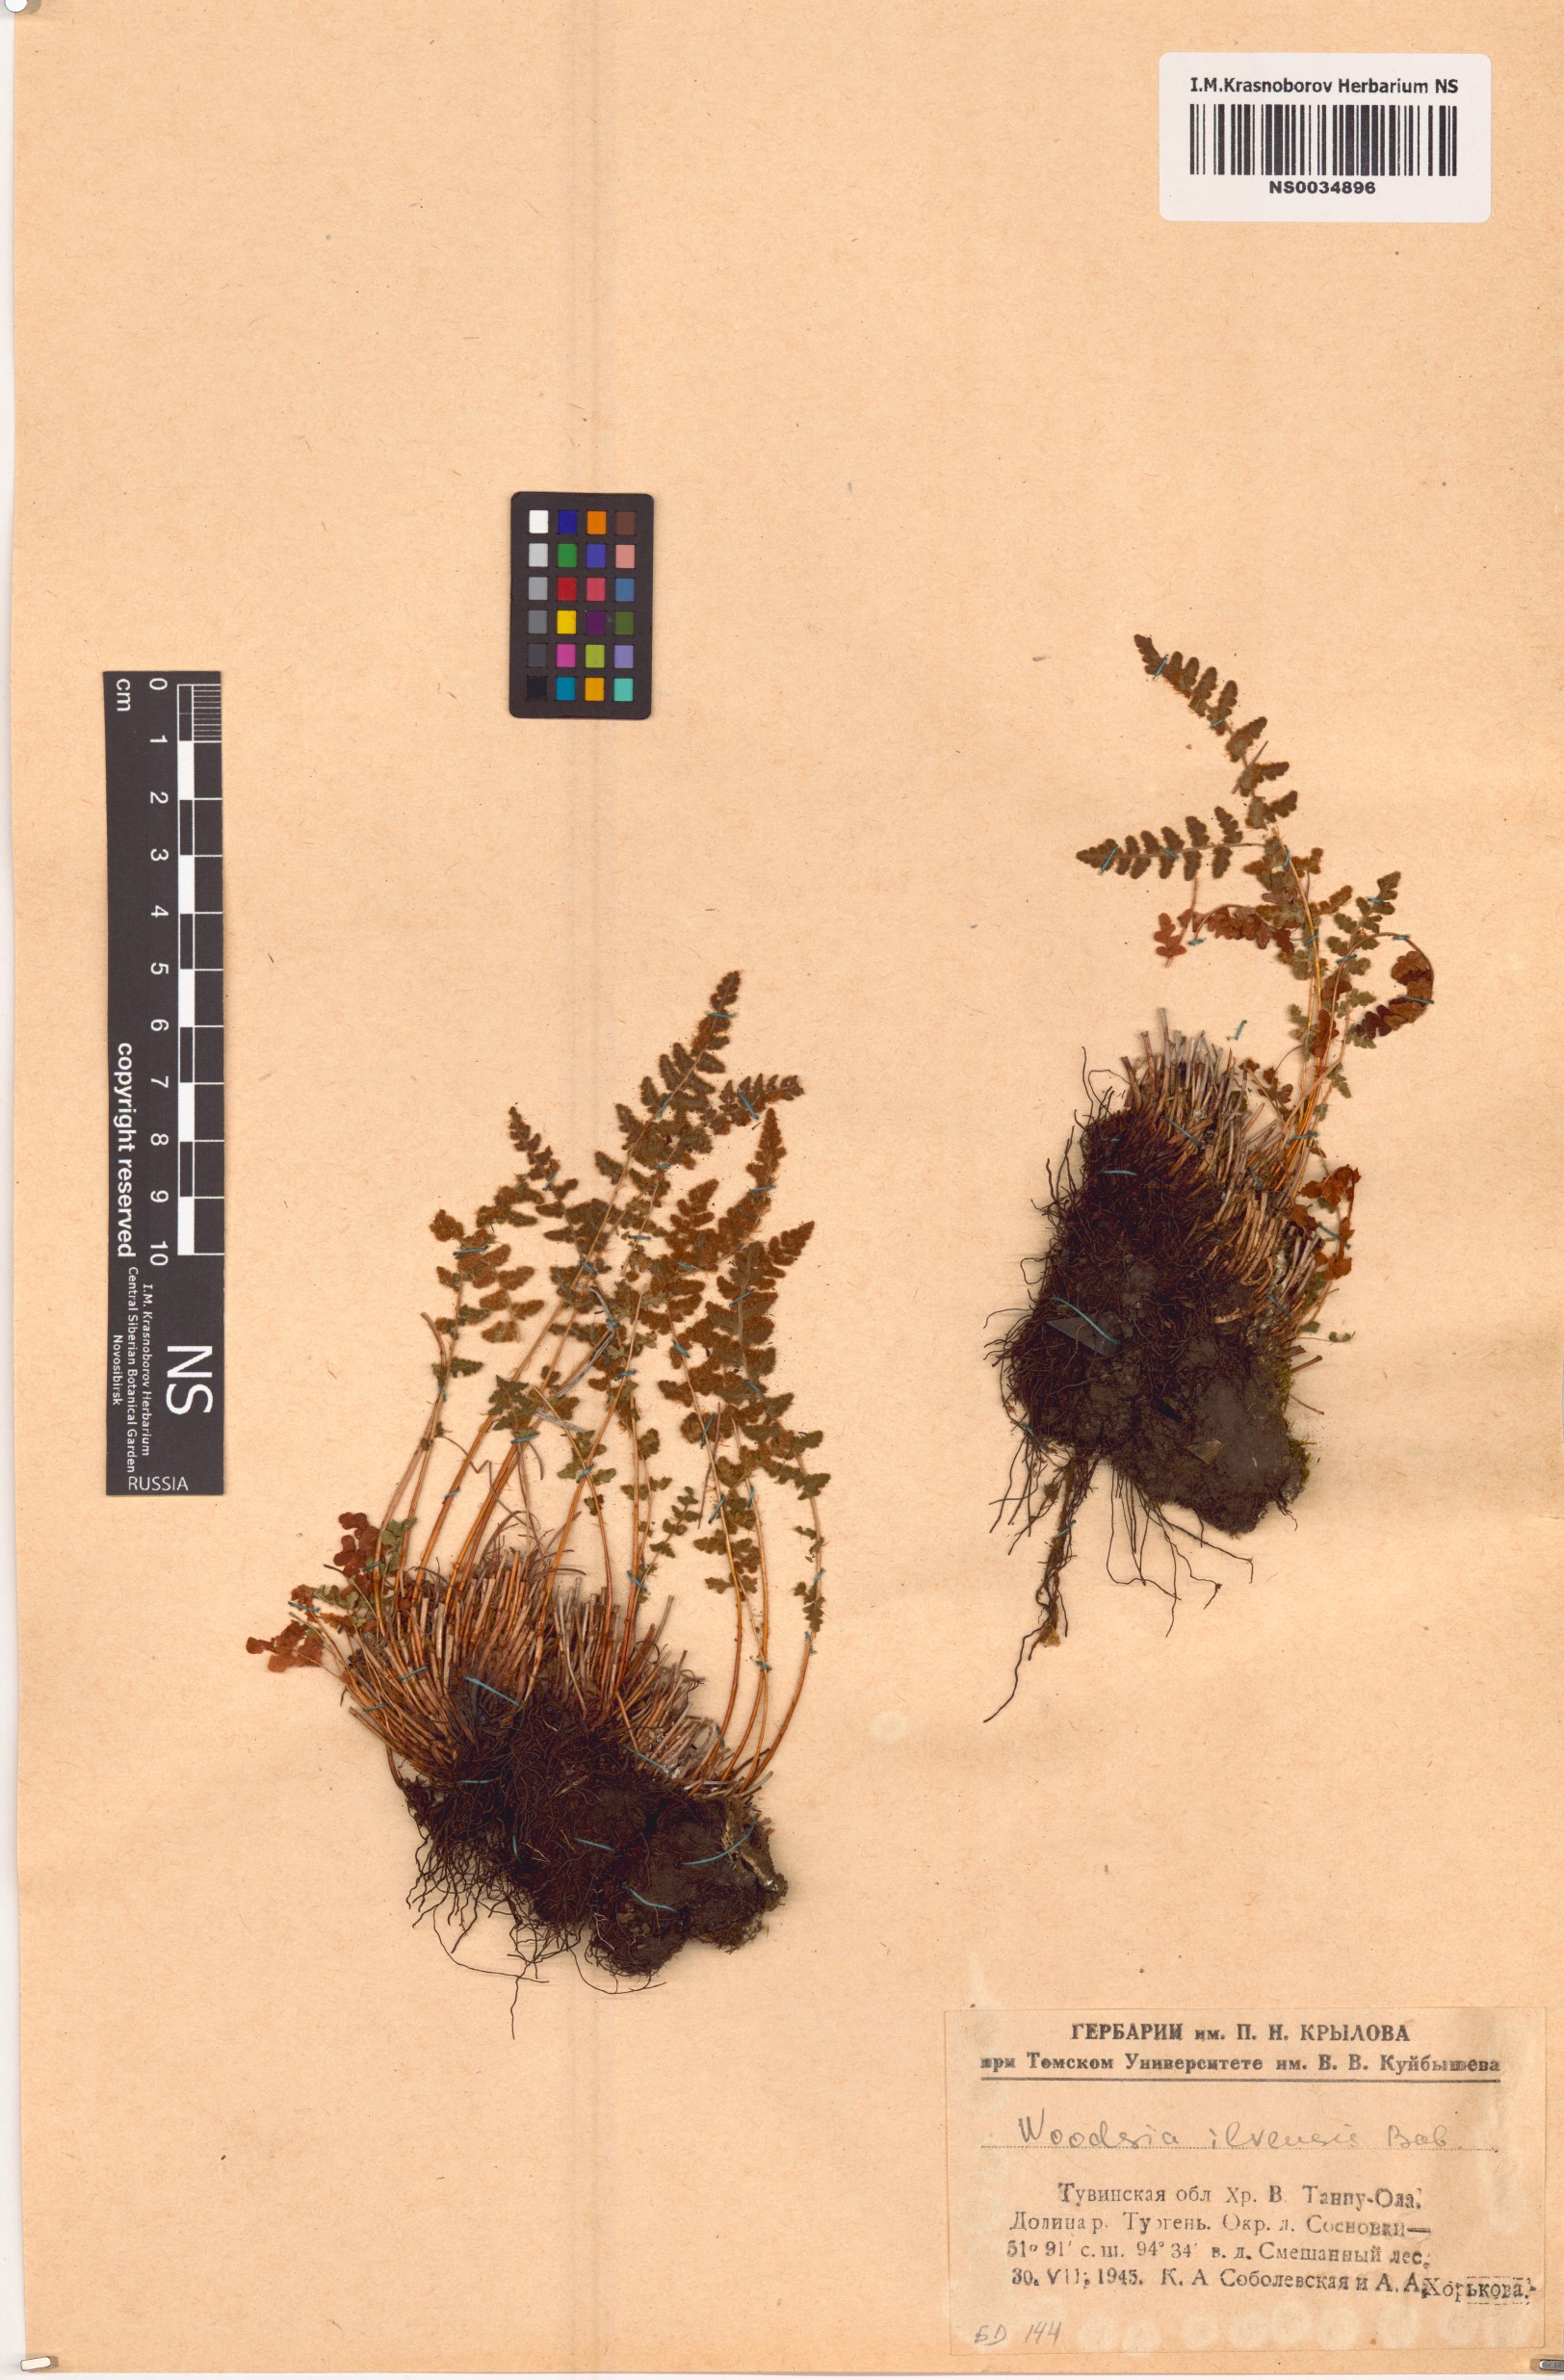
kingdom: Plantae
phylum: Tracheophyta
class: Polypodiopsida
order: Polypodiales
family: Woodsiaceae
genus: Woodsia
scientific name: Woodsia ilvensis
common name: Fragrant woodsia
